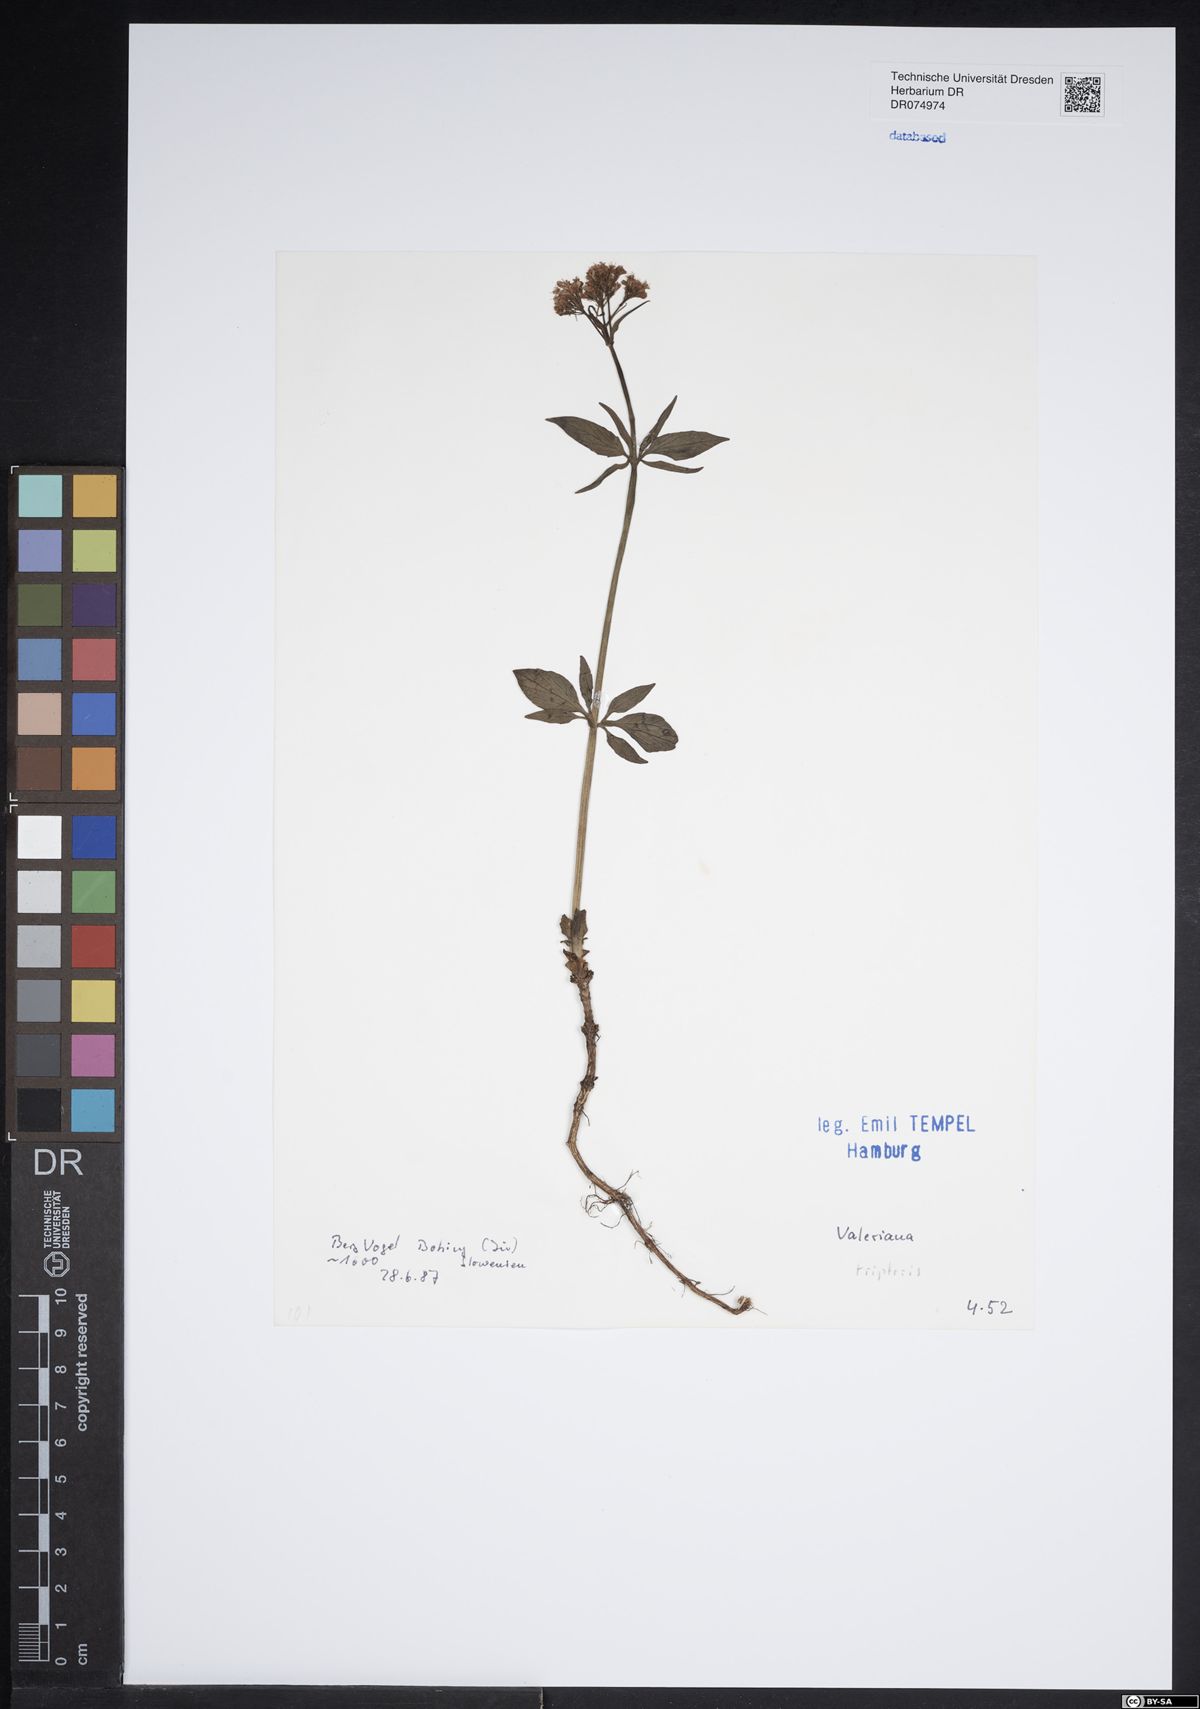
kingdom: Plantae
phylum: Tracheophyta
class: Magnoliopsida
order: Dipsacales
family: Caprifoliaceae
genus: Valeriana
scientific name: Valeriana tripteris
